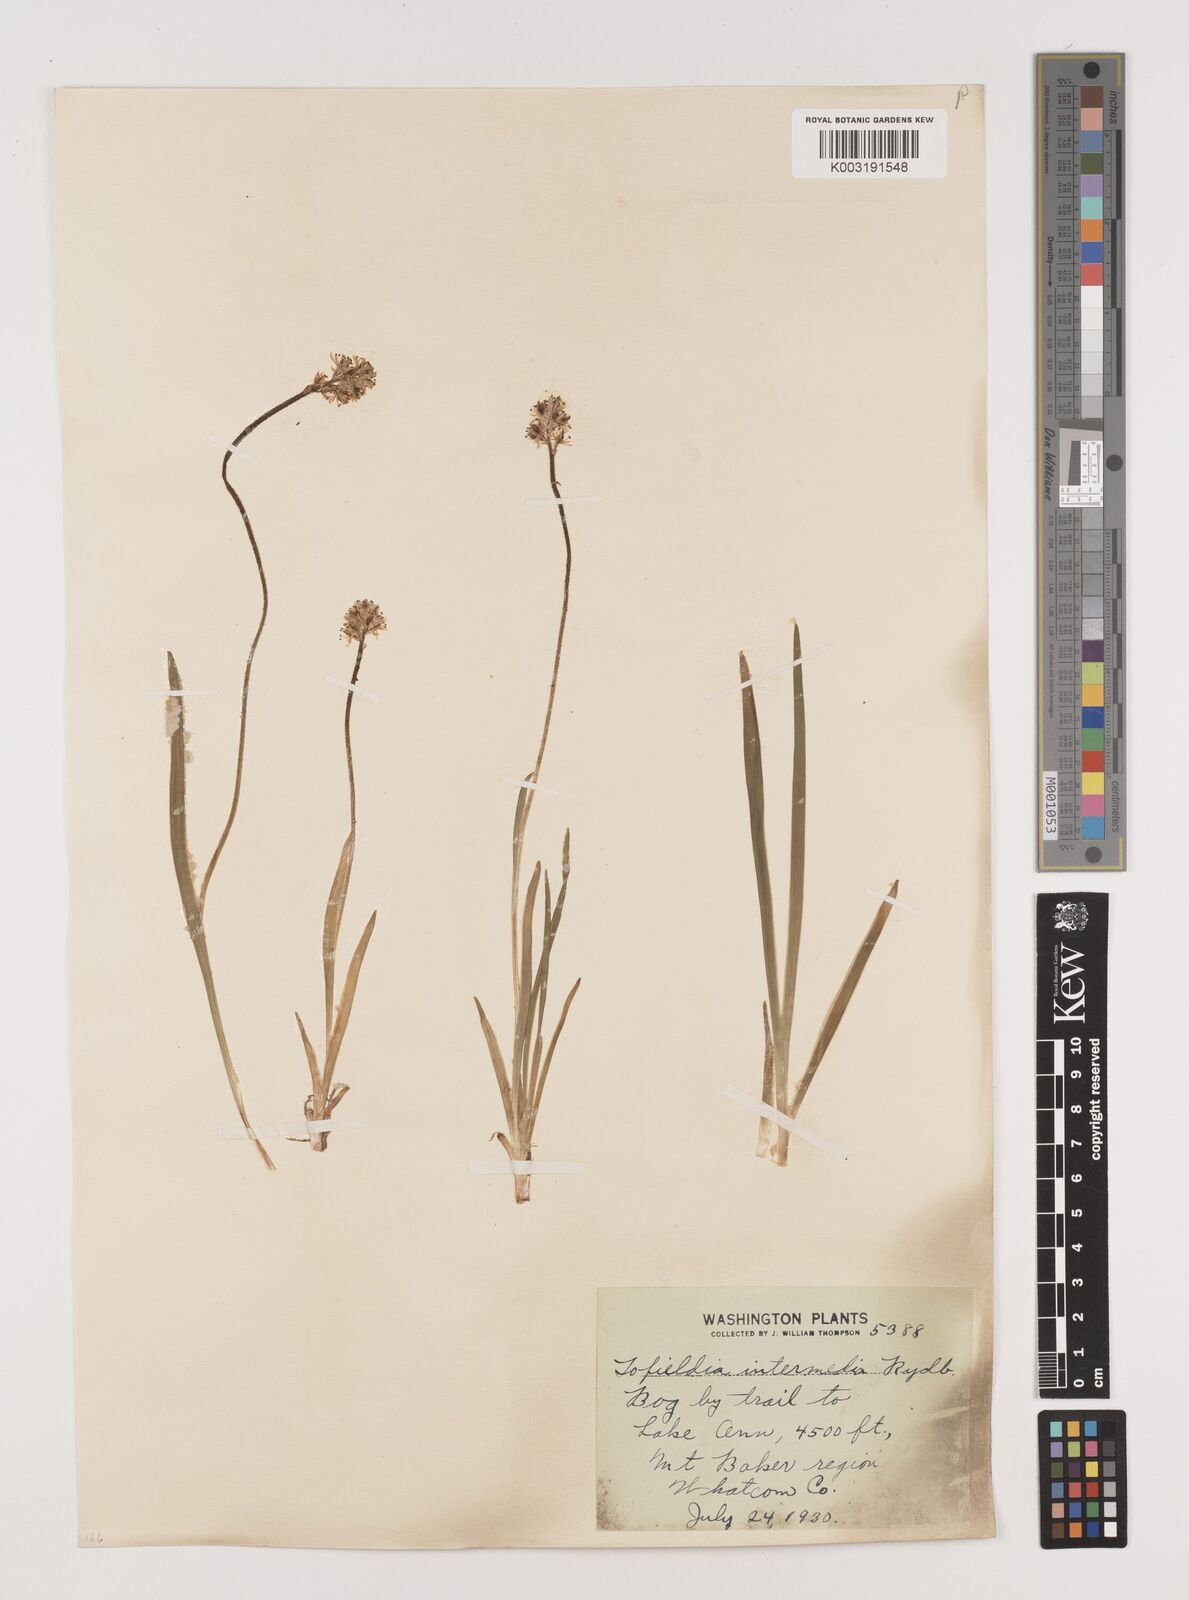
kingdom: Plantae
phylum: Tracheophyta
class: Liliopsida
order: Alismatales
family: Tofieldiaceae
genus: Triantha
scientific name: Triantha occidentalis
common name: Western false asphodel
